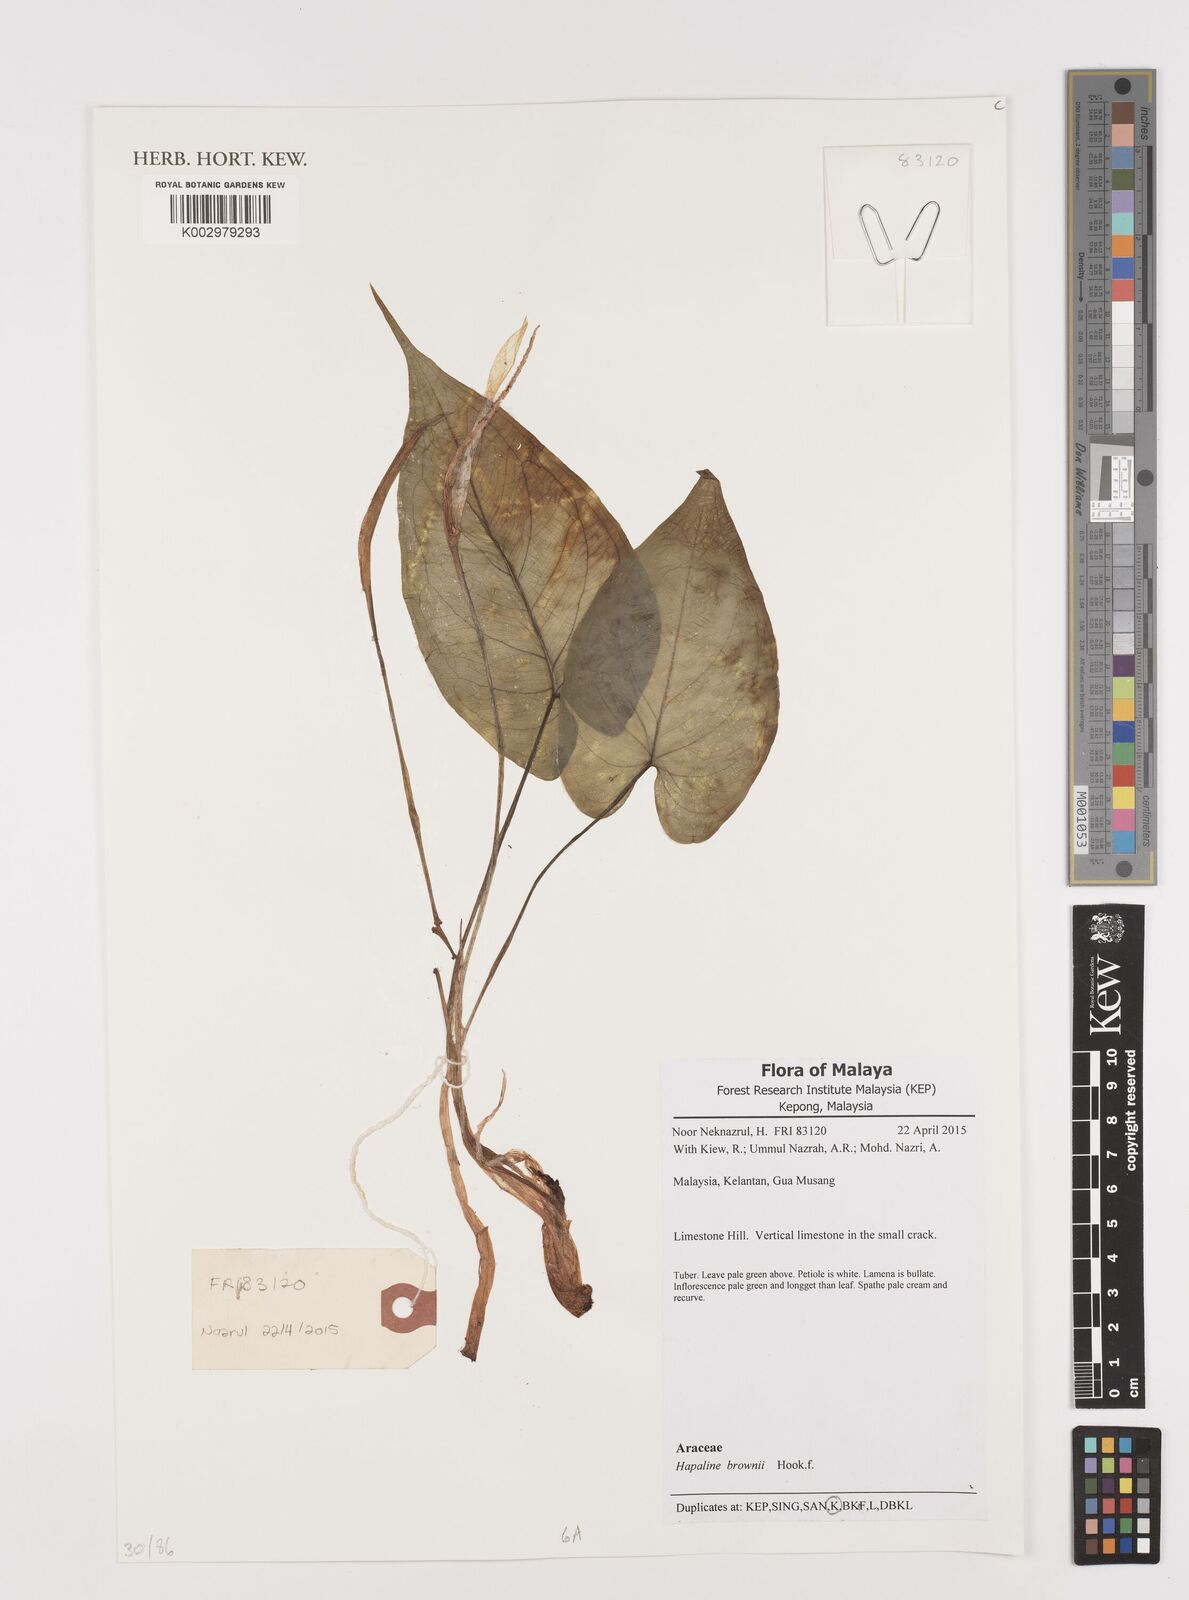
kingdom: Plantae
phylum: Tracheophyta
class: Liliopsida
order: Alismatales
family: Araceae
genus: Hapaline
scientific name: Hapaline brownii
